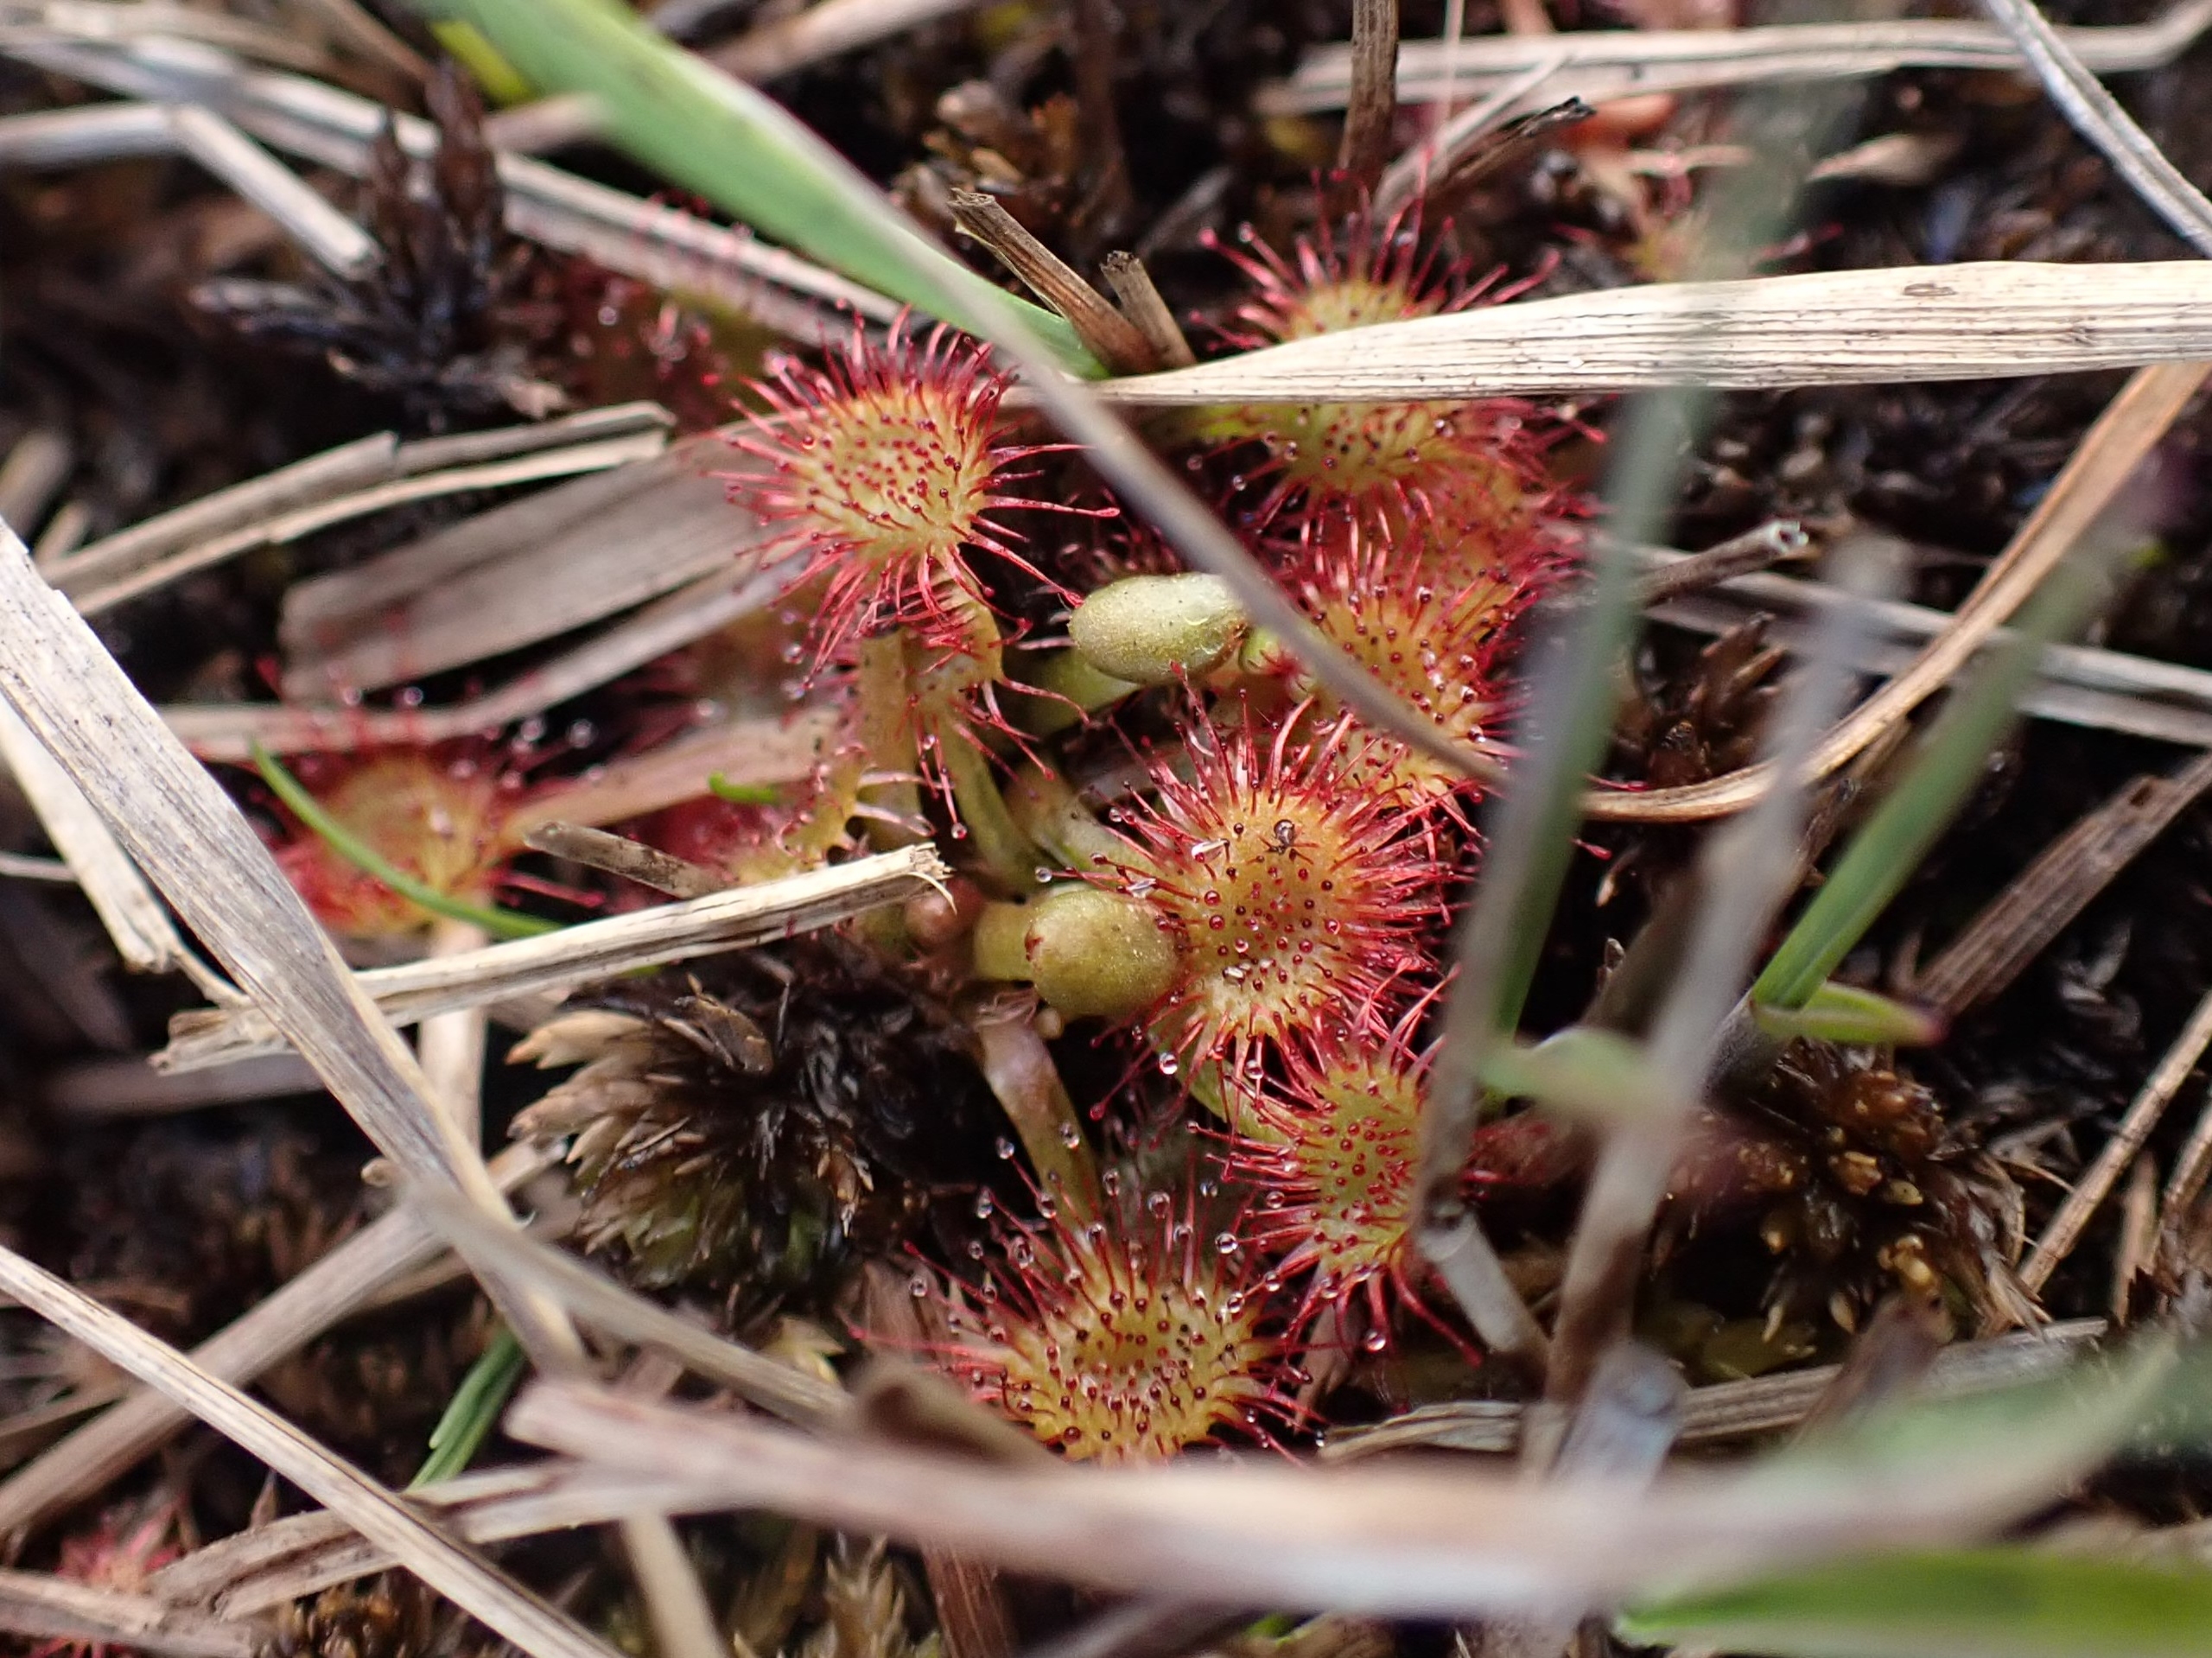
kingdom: Plantae
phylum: Tracheophyta
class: Magnoliopsida
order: Caryophyllales
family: Droseraceae
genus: Drosera
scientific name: Drosera rotundifolia
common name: Rundbladet soldug
